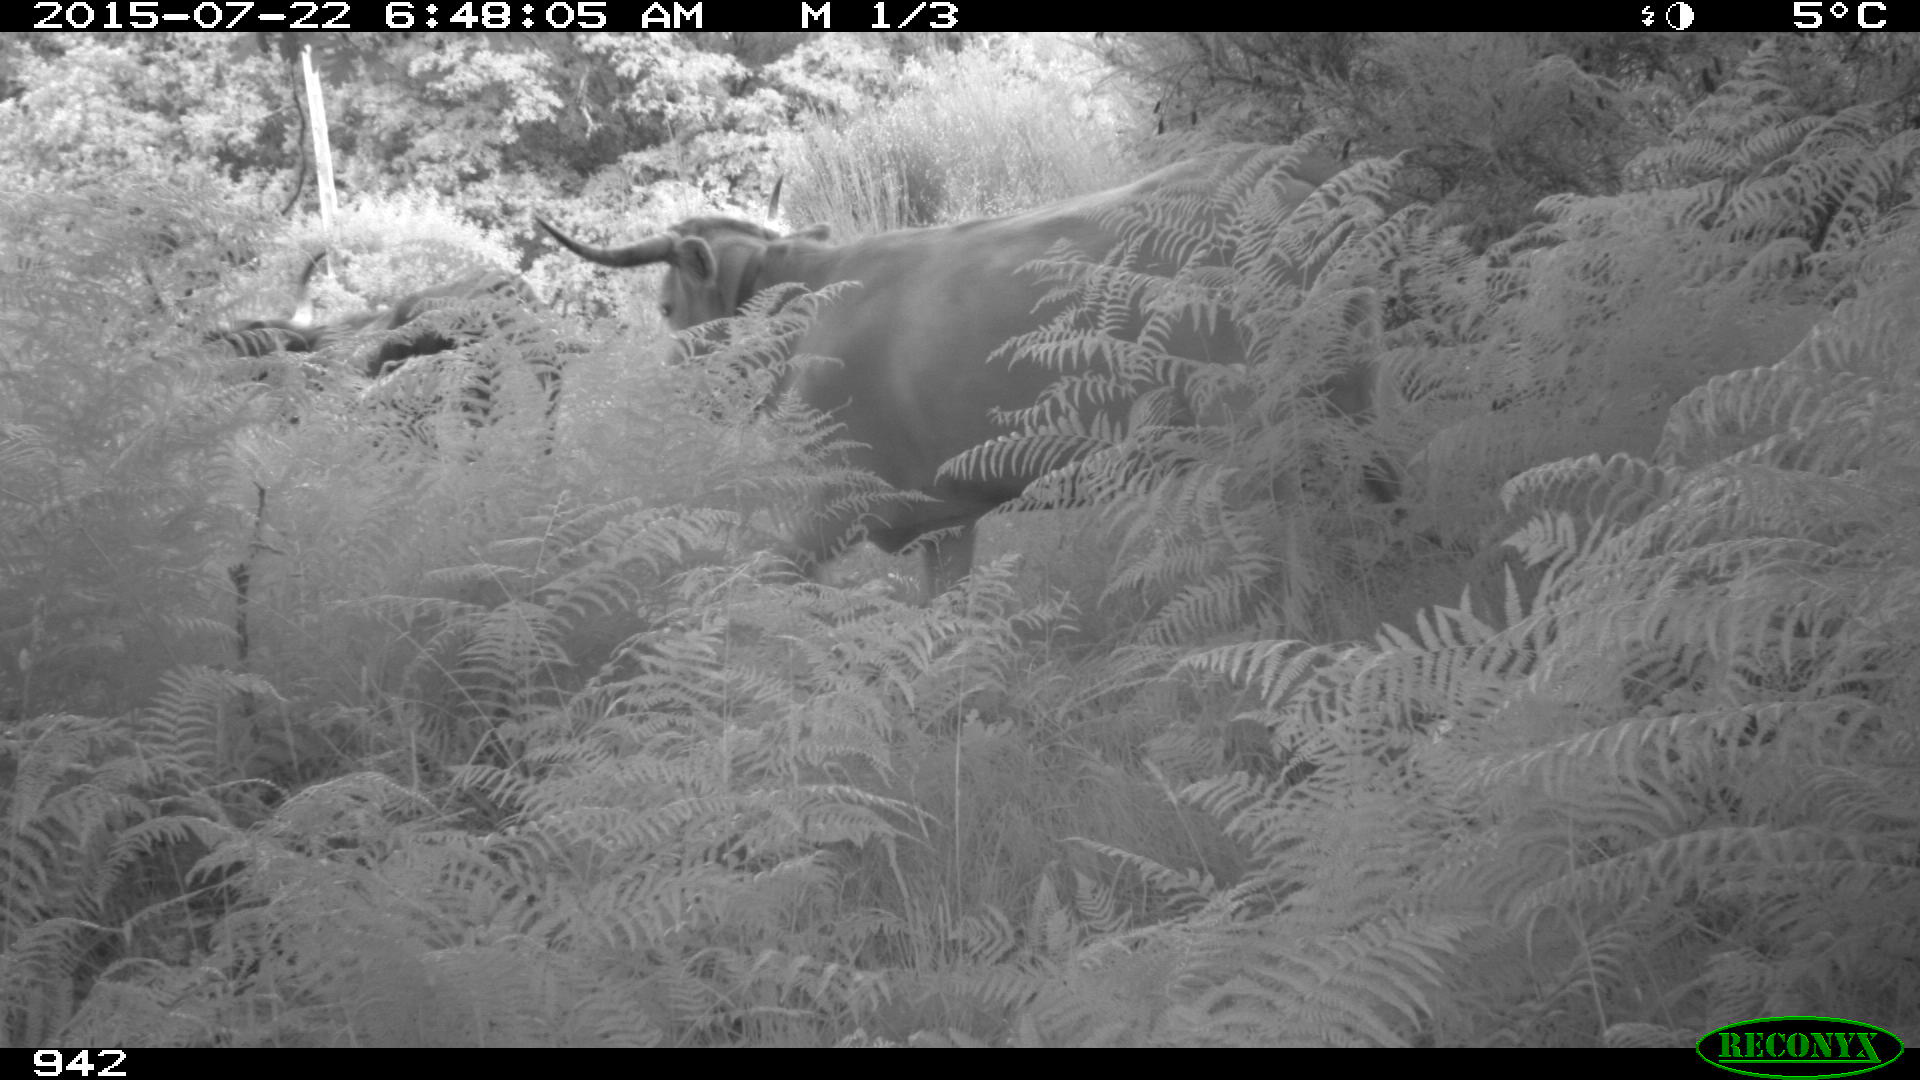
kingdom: Animalia
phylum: Chordata
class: Mammalia
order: Artiodactyla
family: Bovidae
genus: Bos
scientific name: Bos taurus
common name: Domesticated cattle
